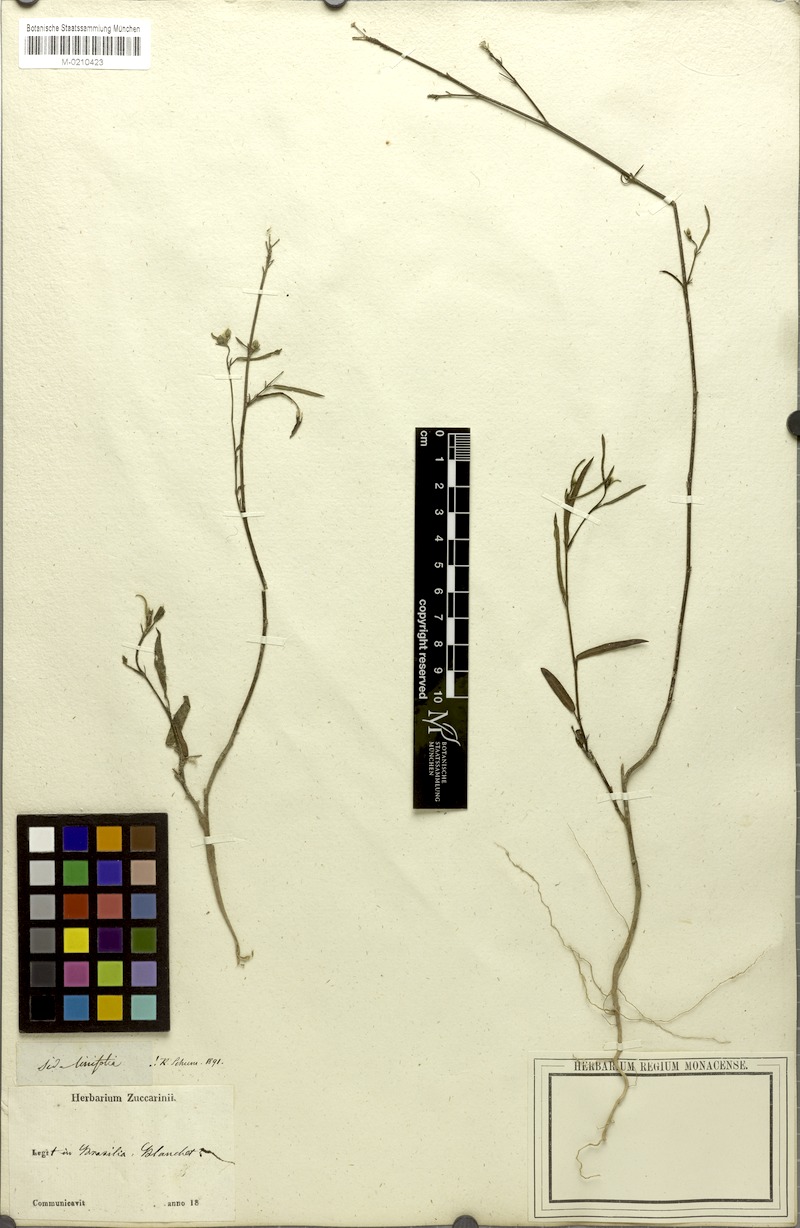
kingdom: Plantae
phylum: Tracheophyta
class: Magnoliopsida
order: Malvales
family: Malvaceae
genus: Sida
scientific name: Sida linifolia
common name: Flaxleaf fanpetals
